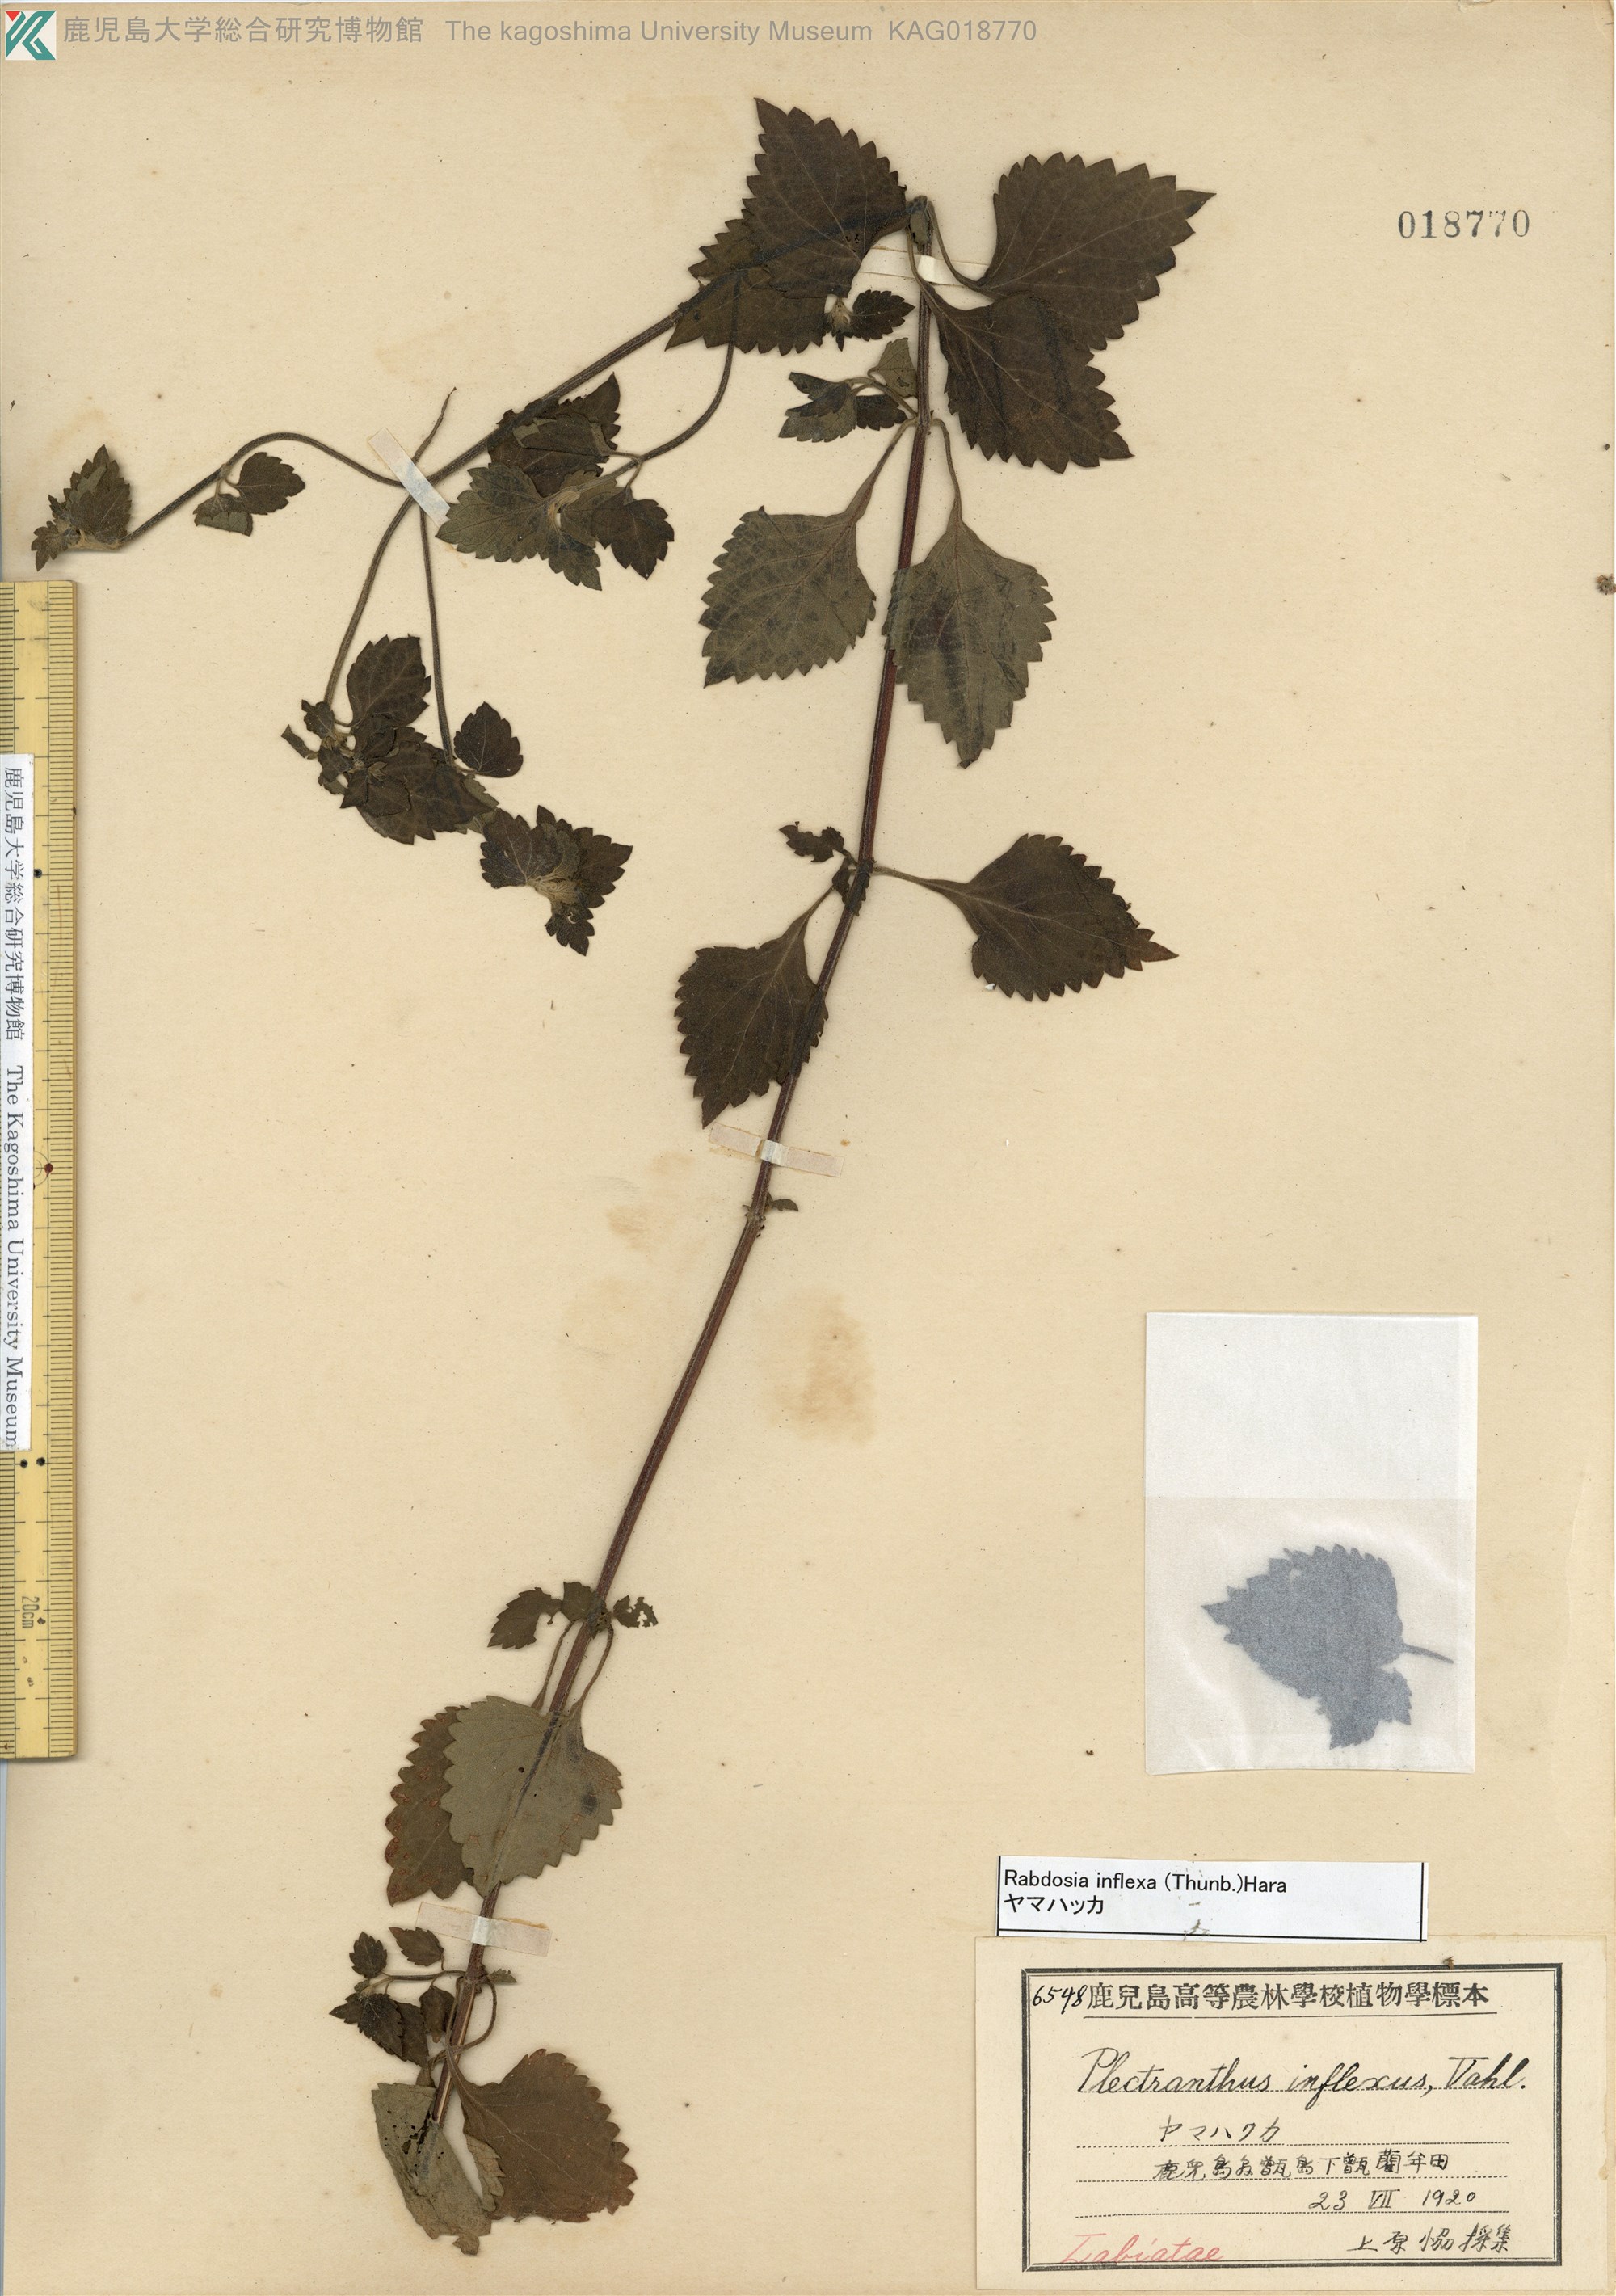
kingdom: Plantae
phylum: Tracheophyta
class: Magnoliopsida
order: Lamiales
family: Lamiaceae
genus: Isodon
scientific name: Isodon inflexus
